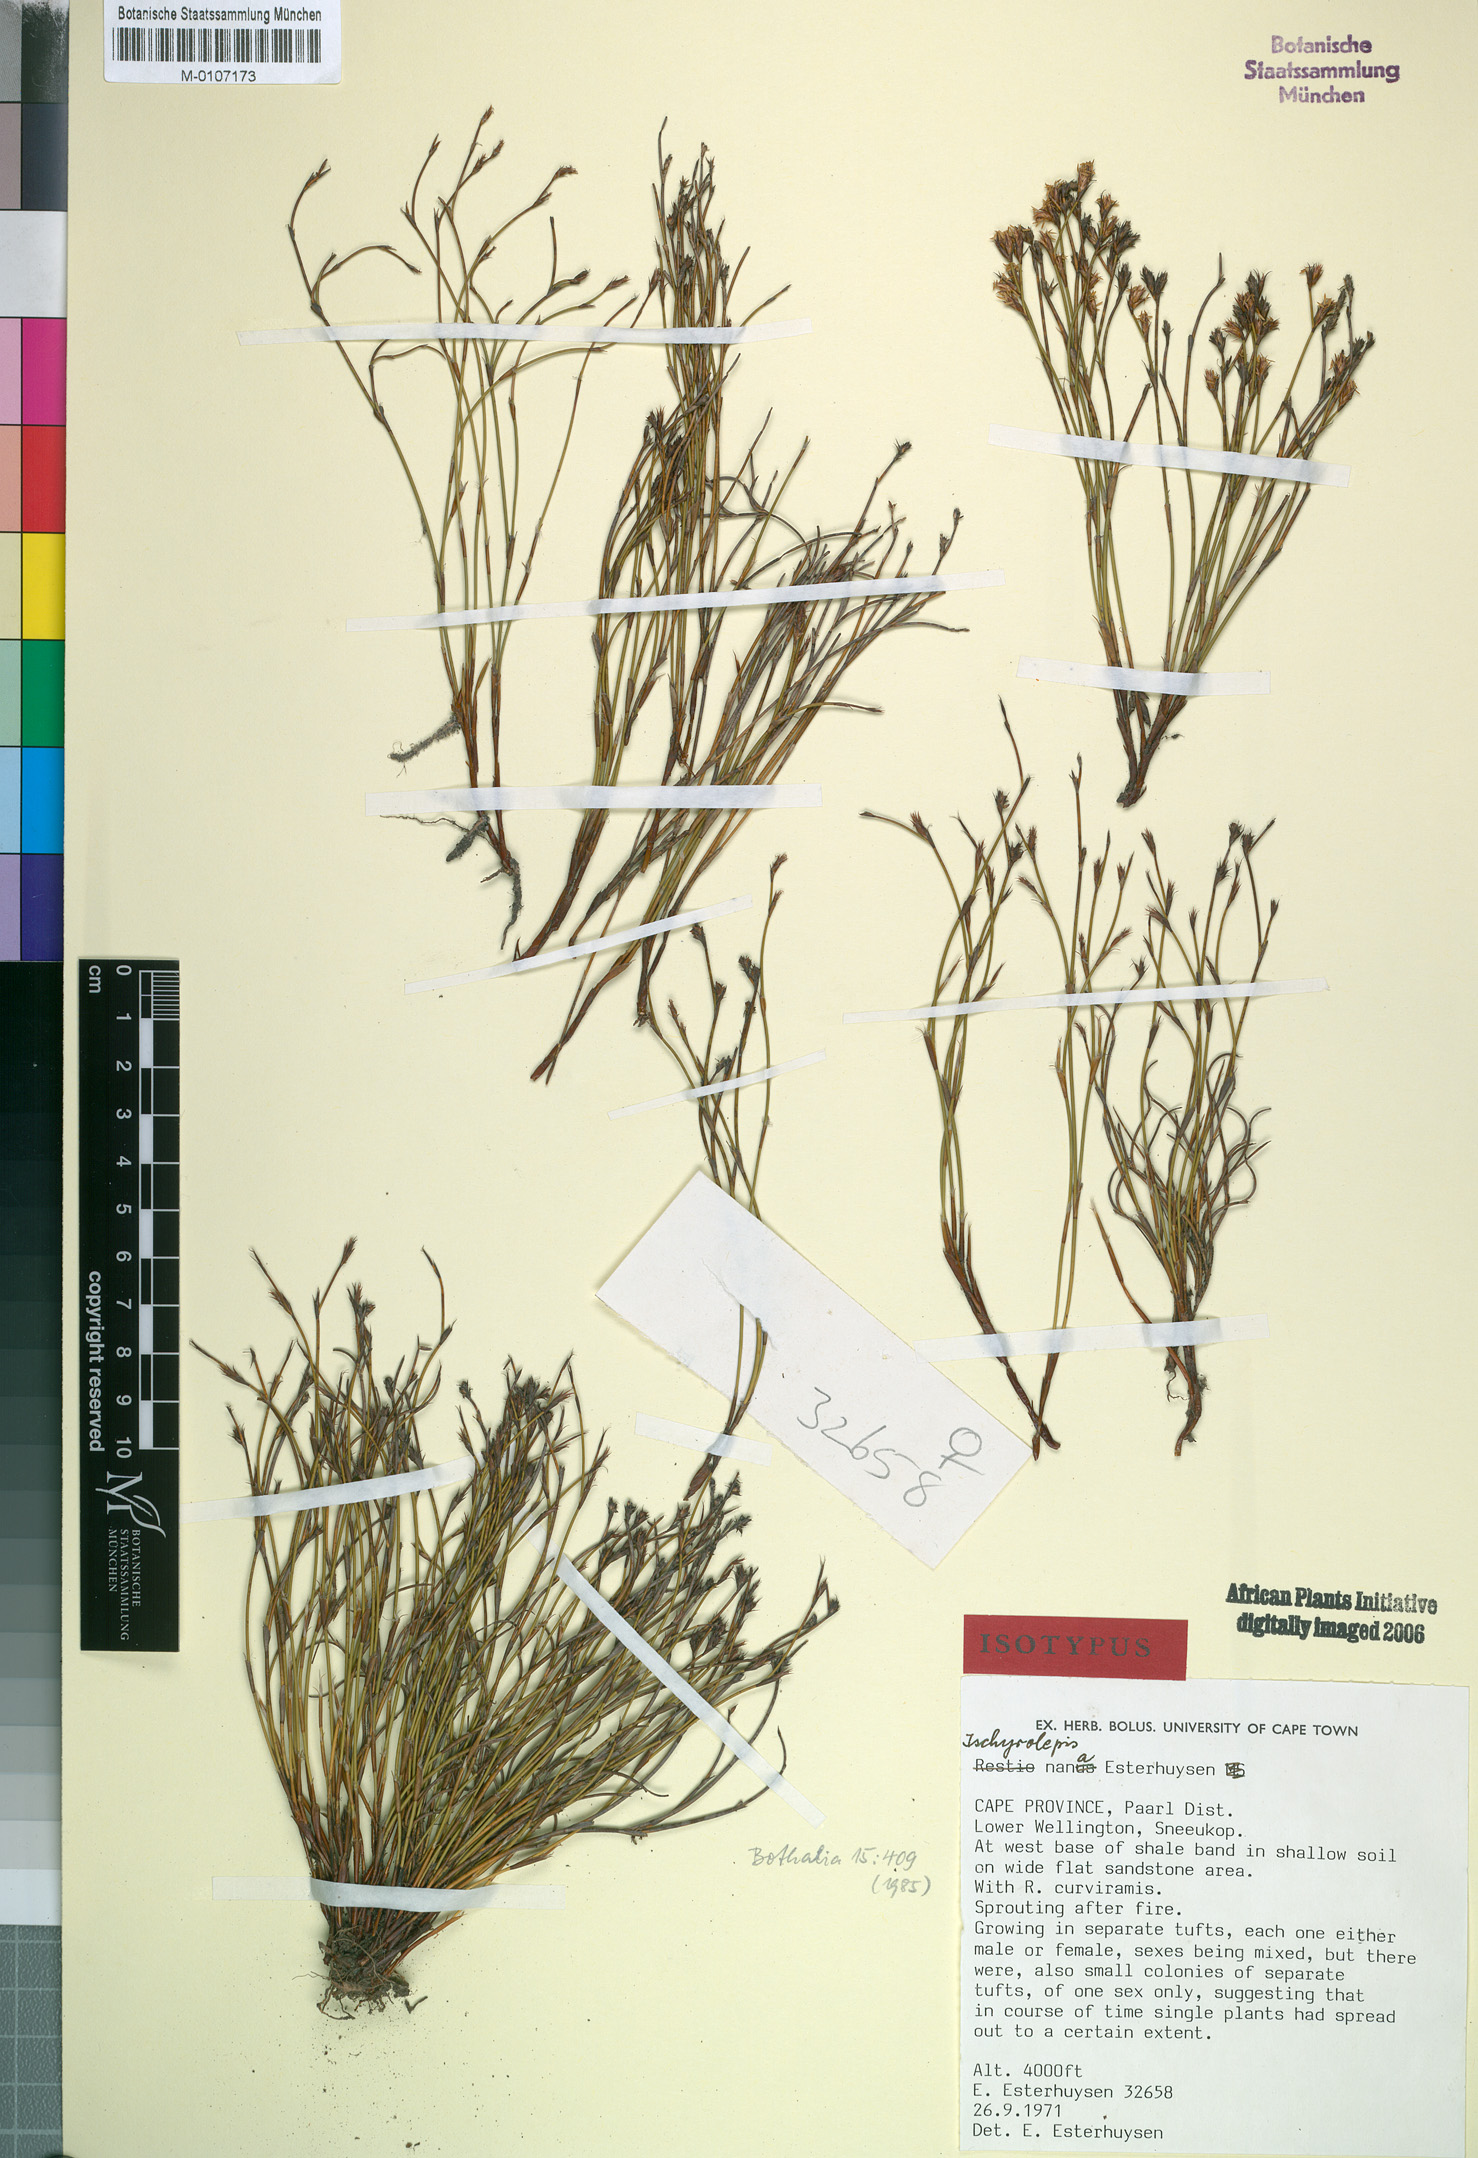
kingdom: Plantae
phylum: Tracheophyta
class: Liliopsida
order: Poales
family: Restionaceae
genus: Restio
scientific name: Restio nanus
